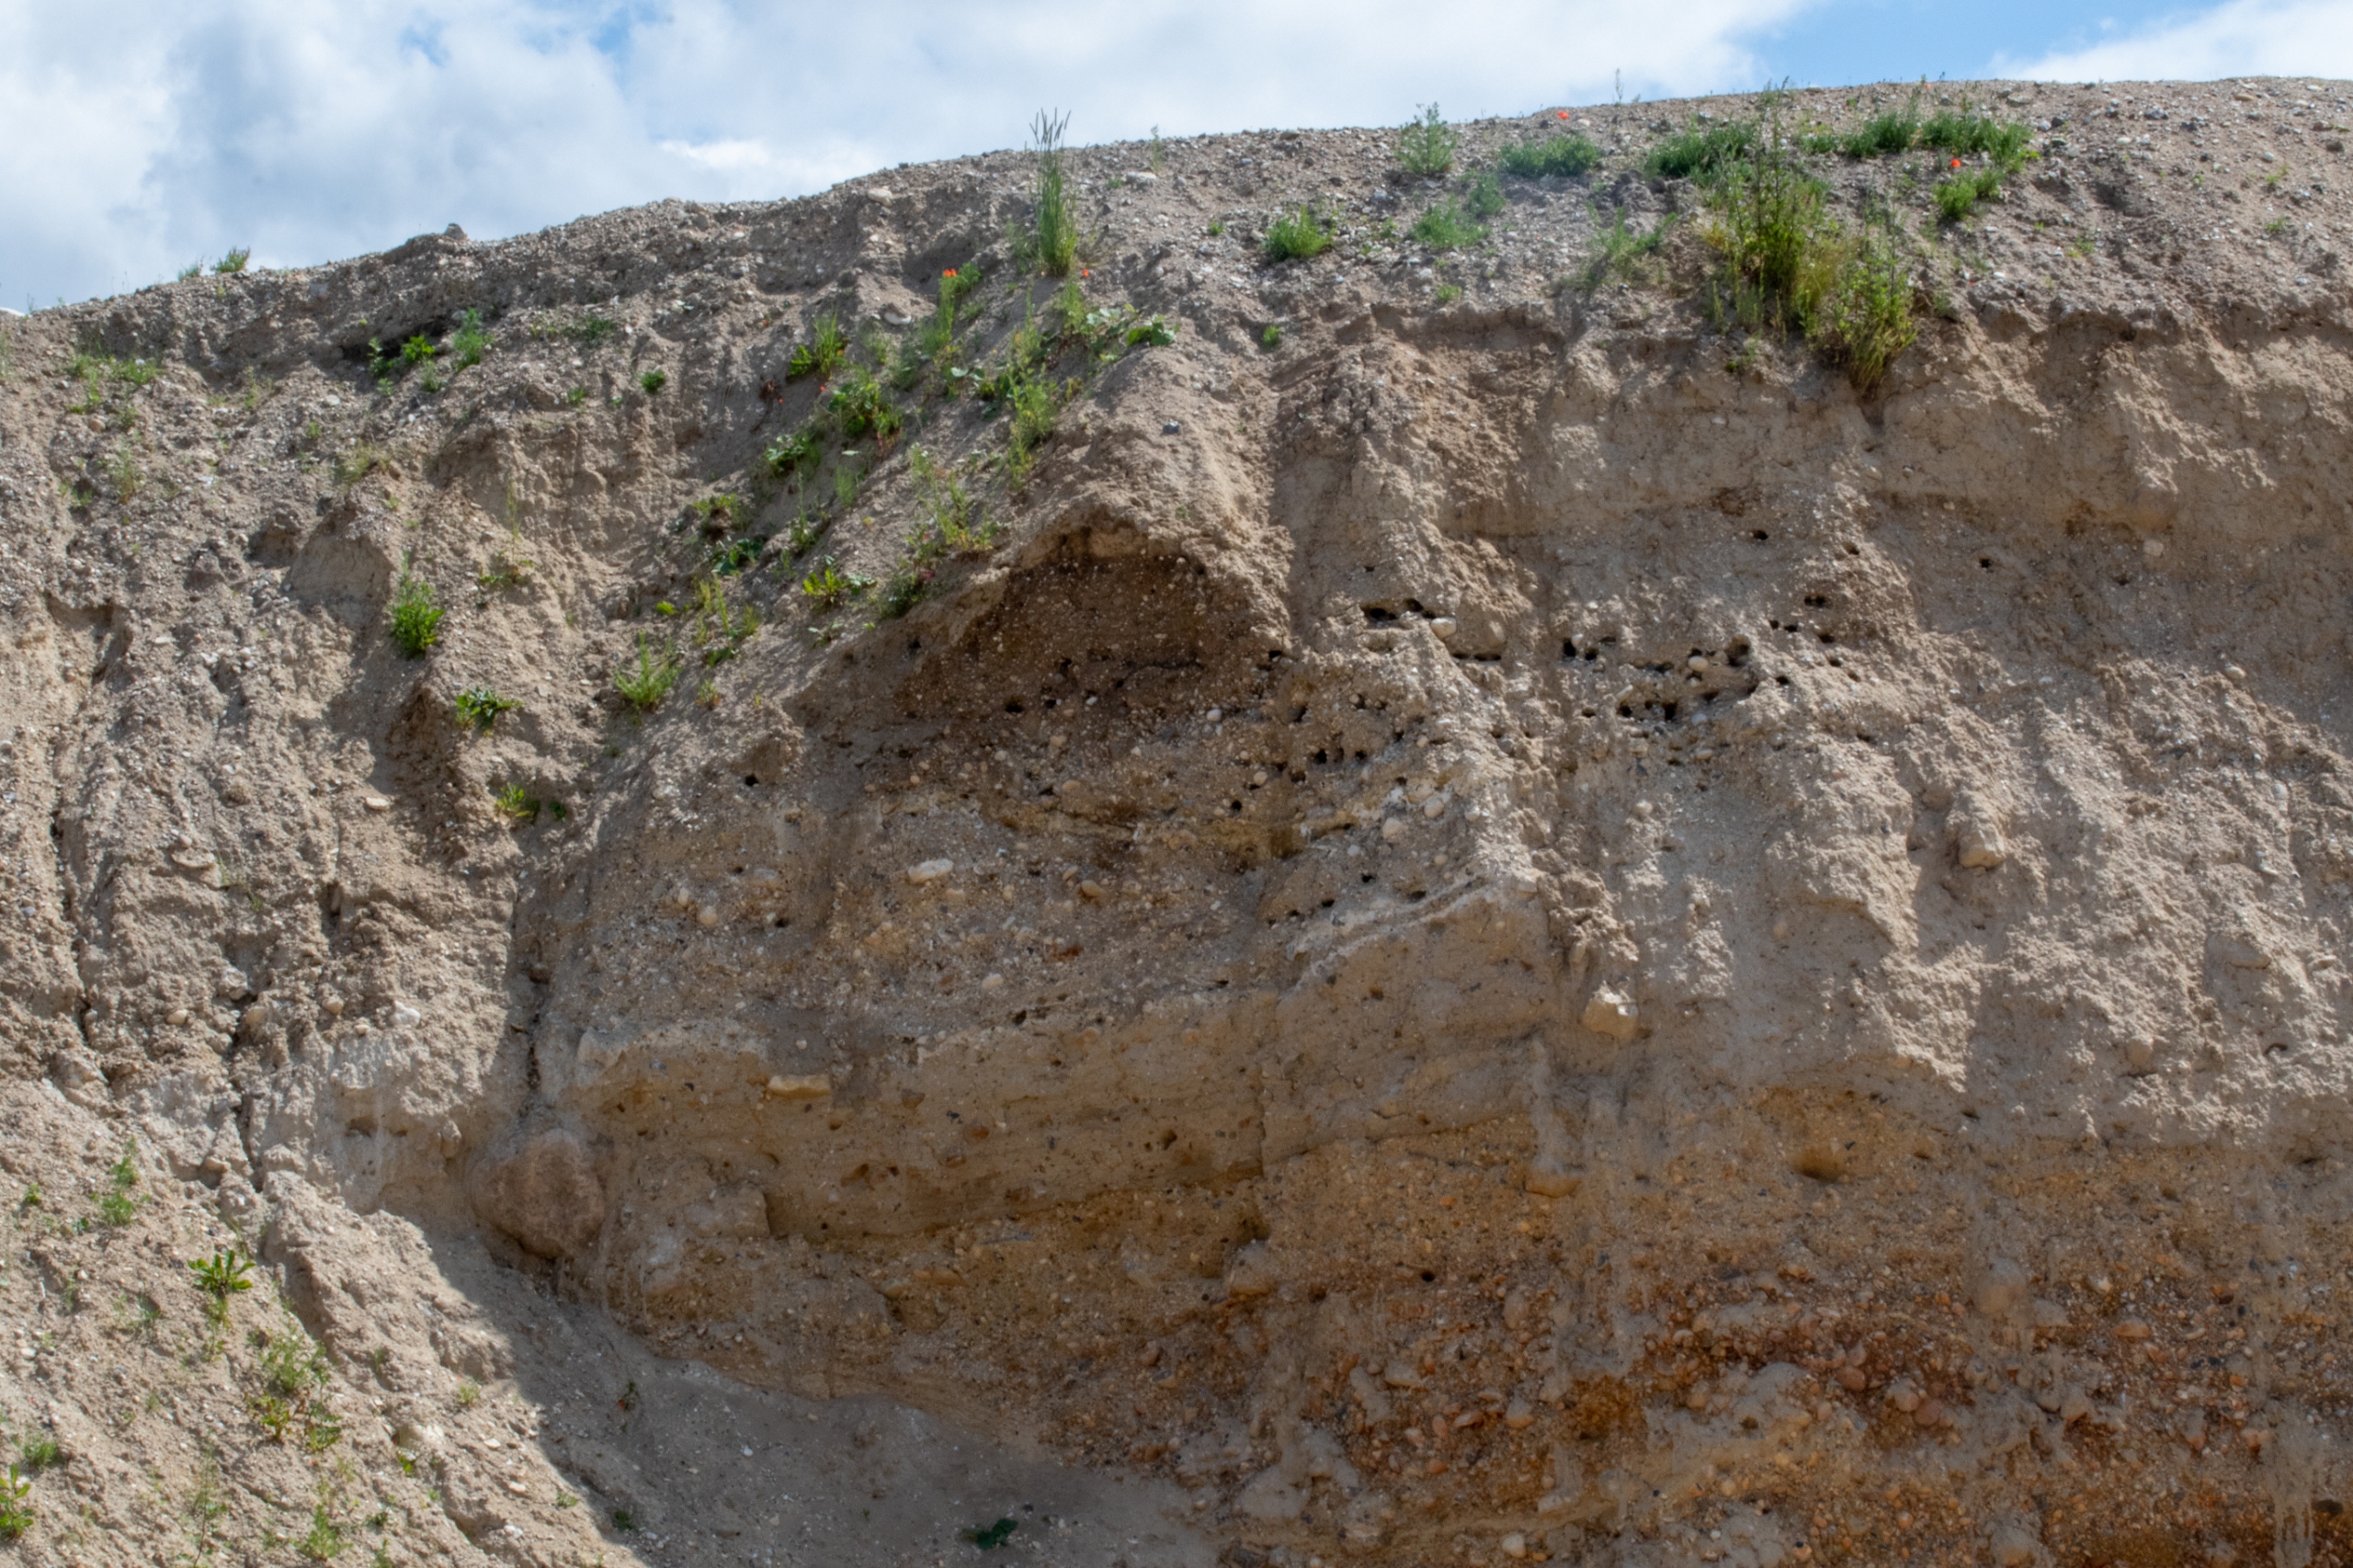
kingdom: Animalia
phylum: Chordata
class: Aves
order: Passeriformes
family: Hirundinidae
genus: Riparia
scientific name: Riparia riparia
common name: Digesvale
